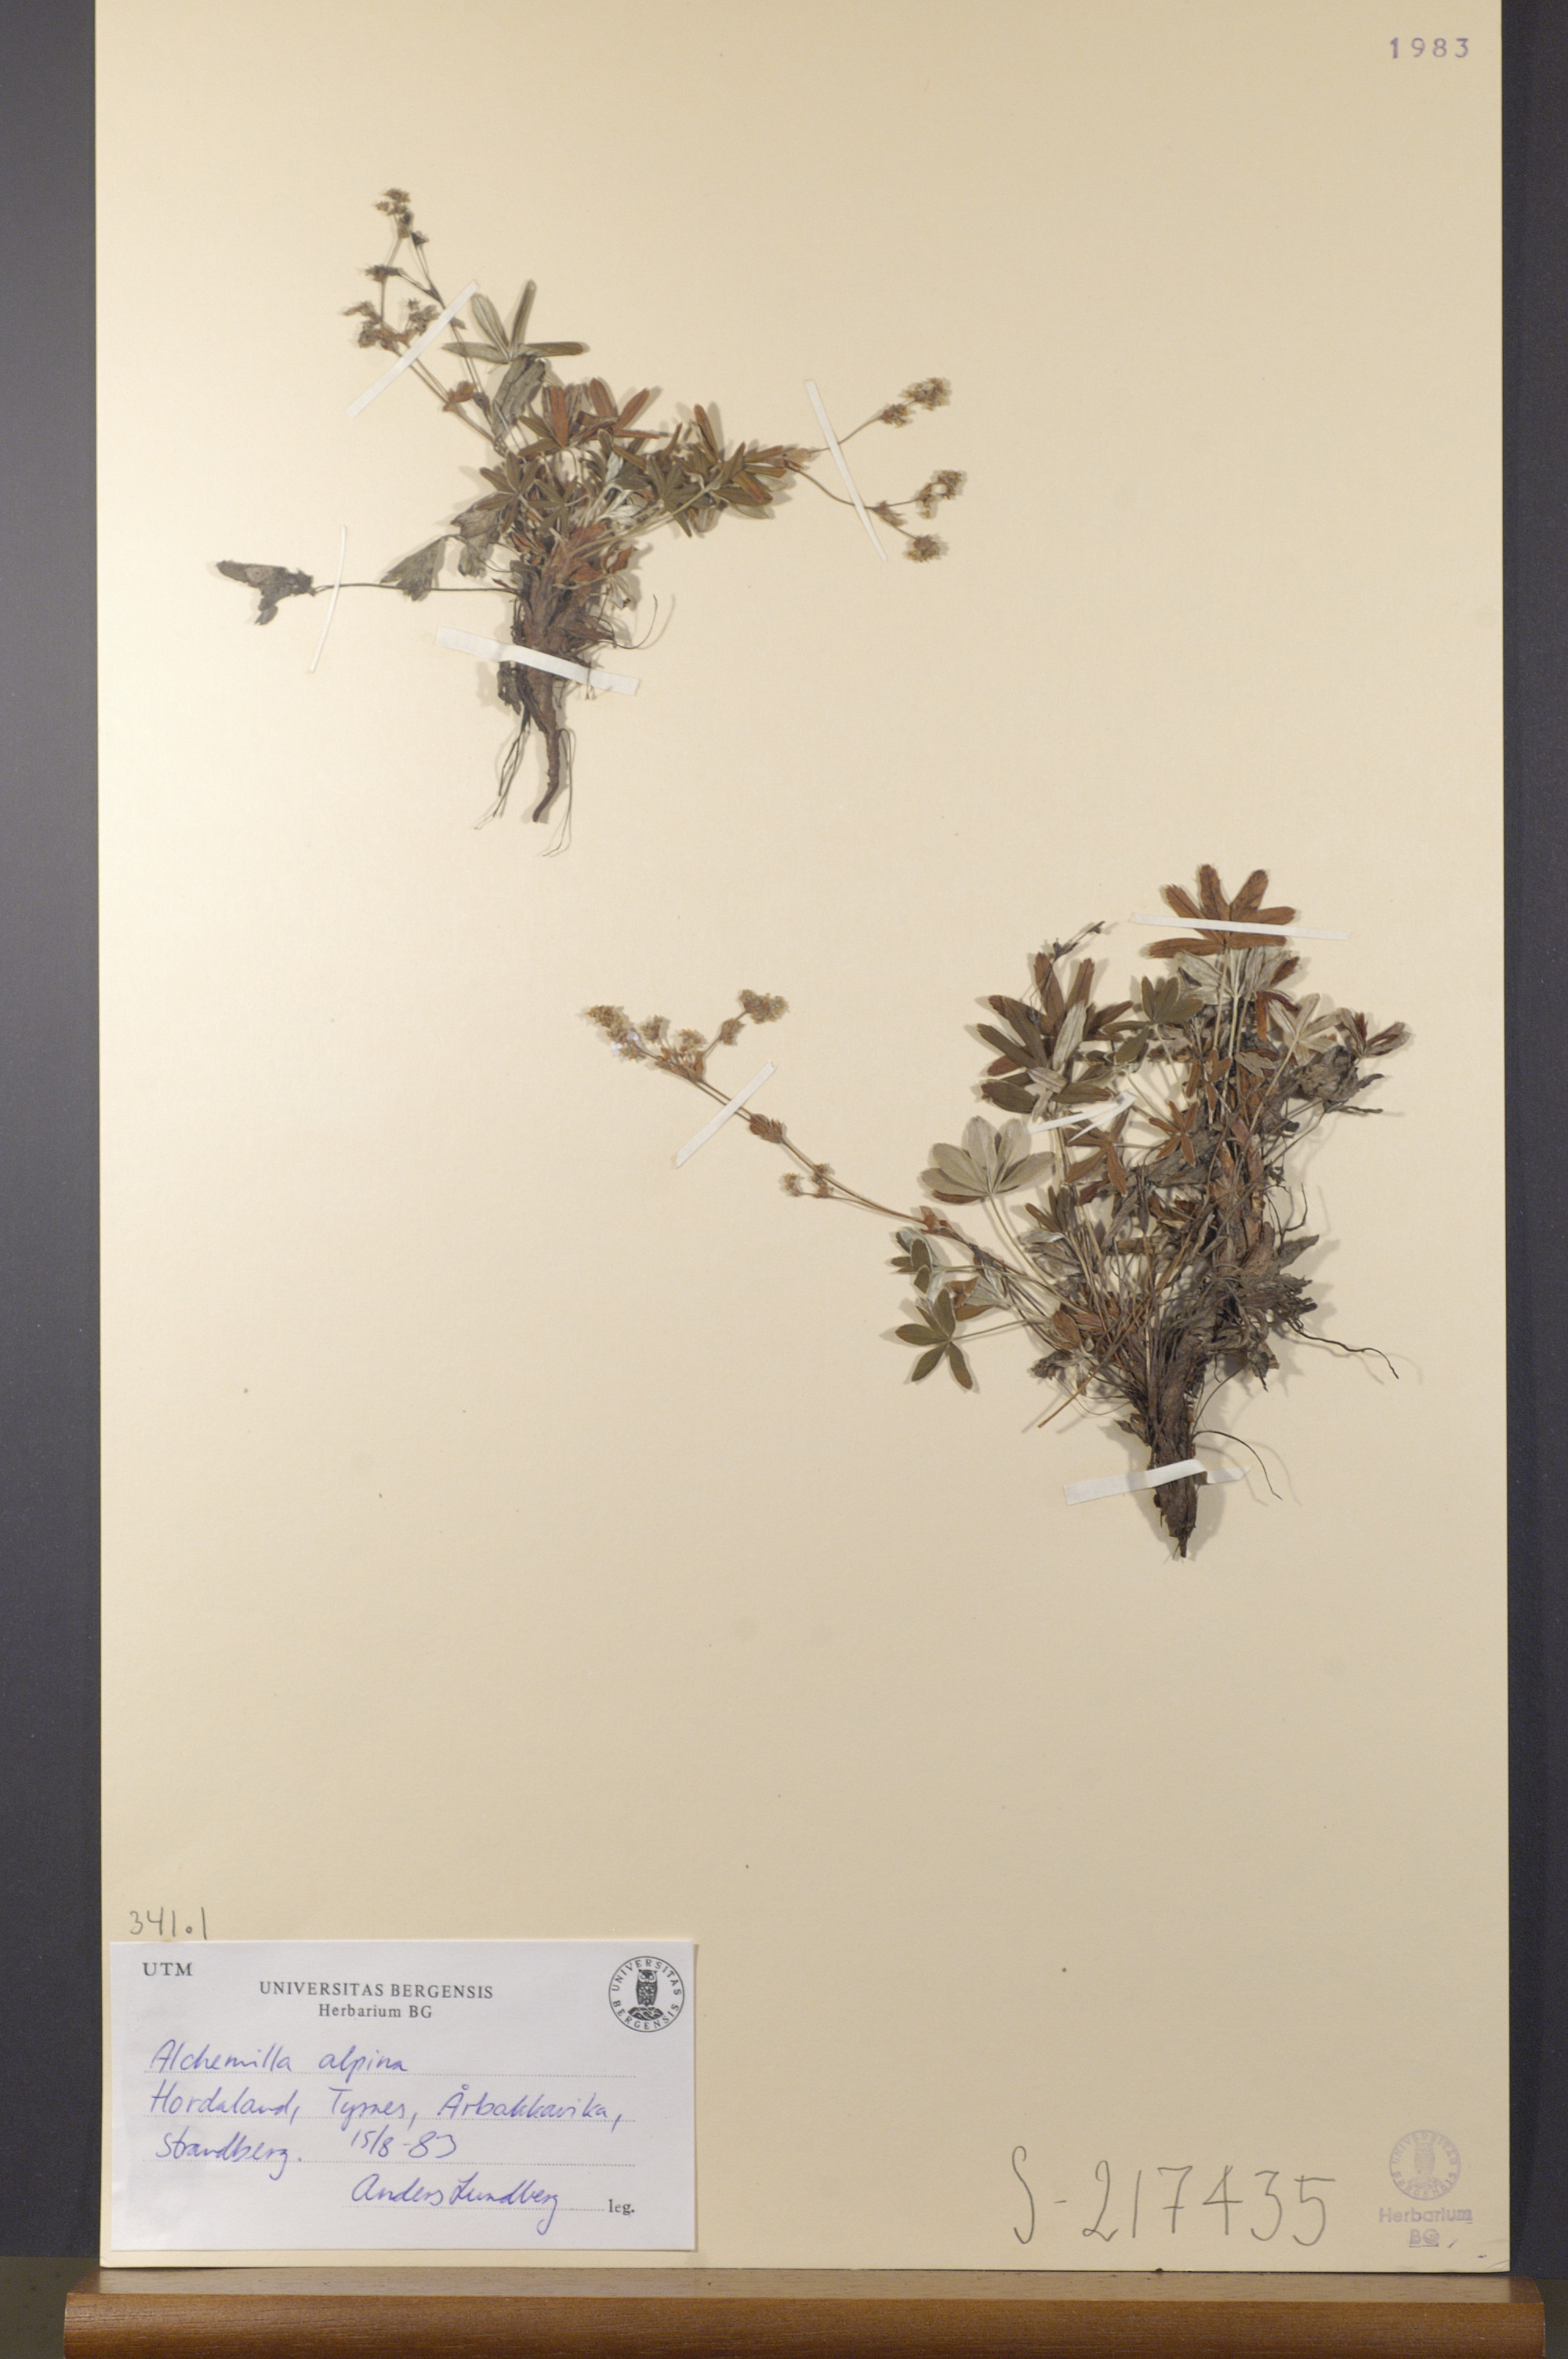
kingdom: Plantae
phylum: Tracheophyta
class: Magnoliopsida
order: Rosales
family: Rosaceae
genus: Alchemilla
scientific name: Alchemilla alpina
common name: Alpine lady's-mantle
